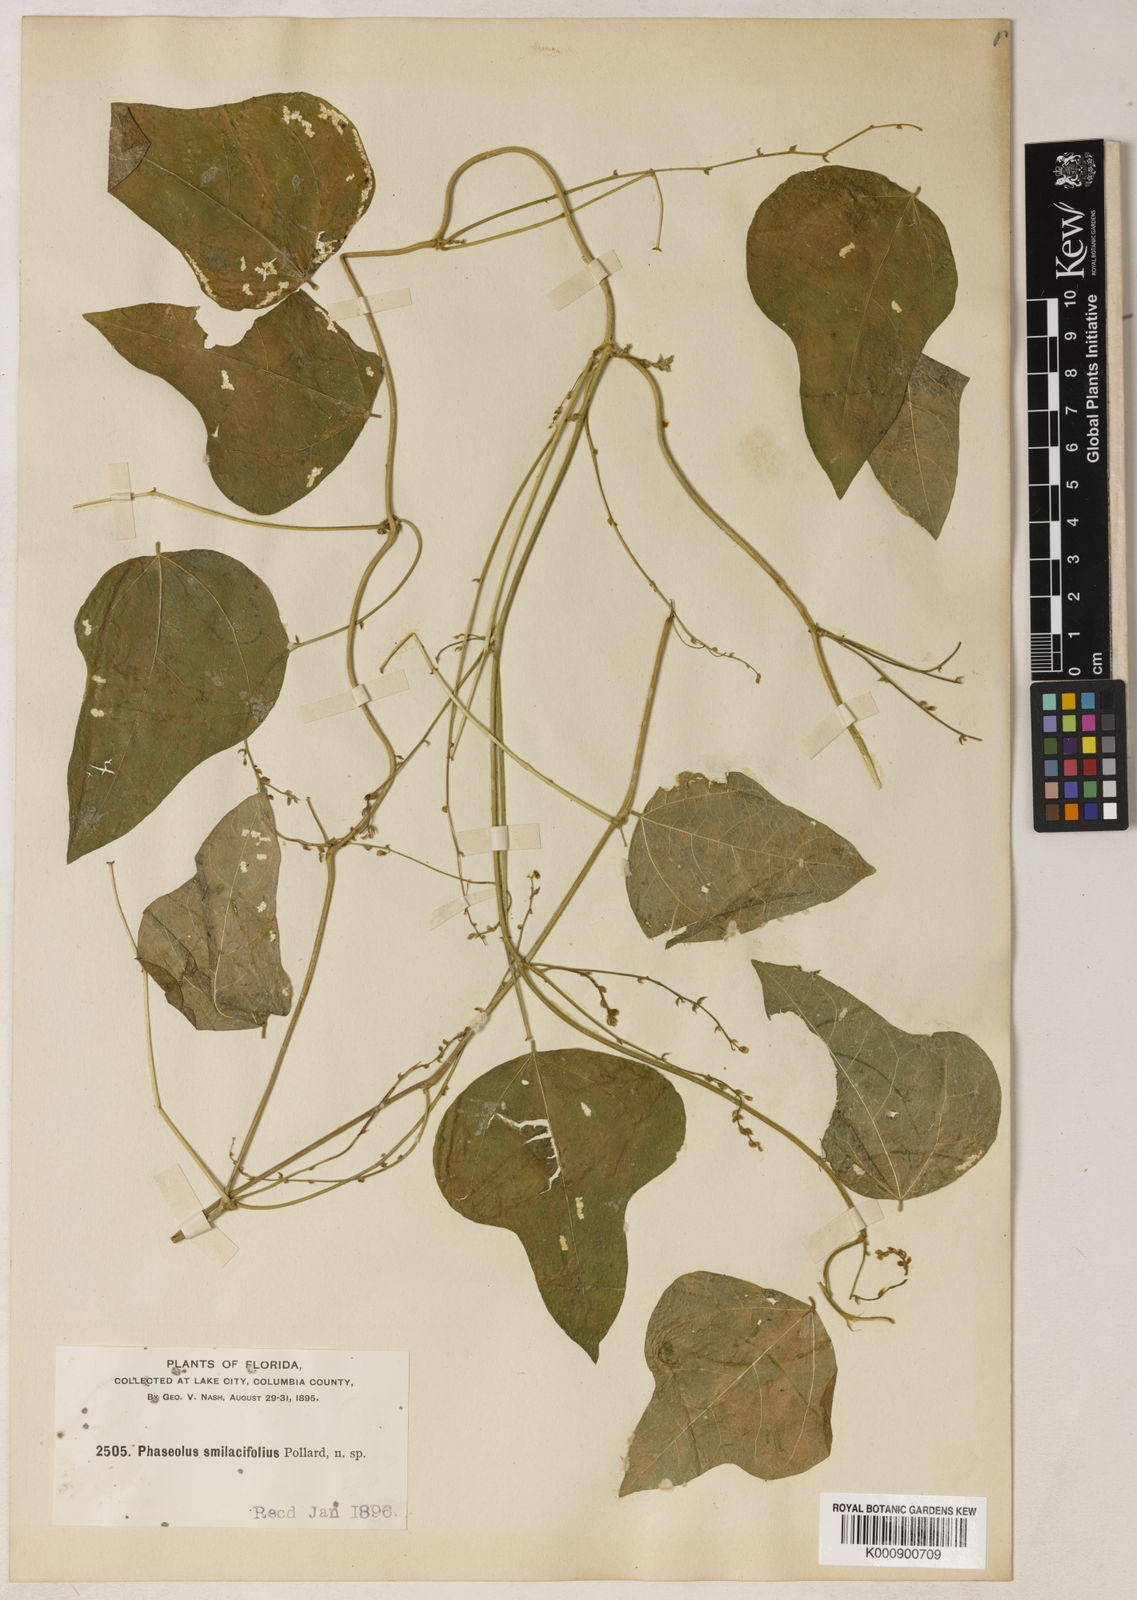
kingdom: Plantae
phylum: Tracheophyta
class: Magnoliopsida
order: Fabales
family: Fabaceae
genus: Phaseolus
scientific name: Phaseolus polystachios
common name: Thicket bean
